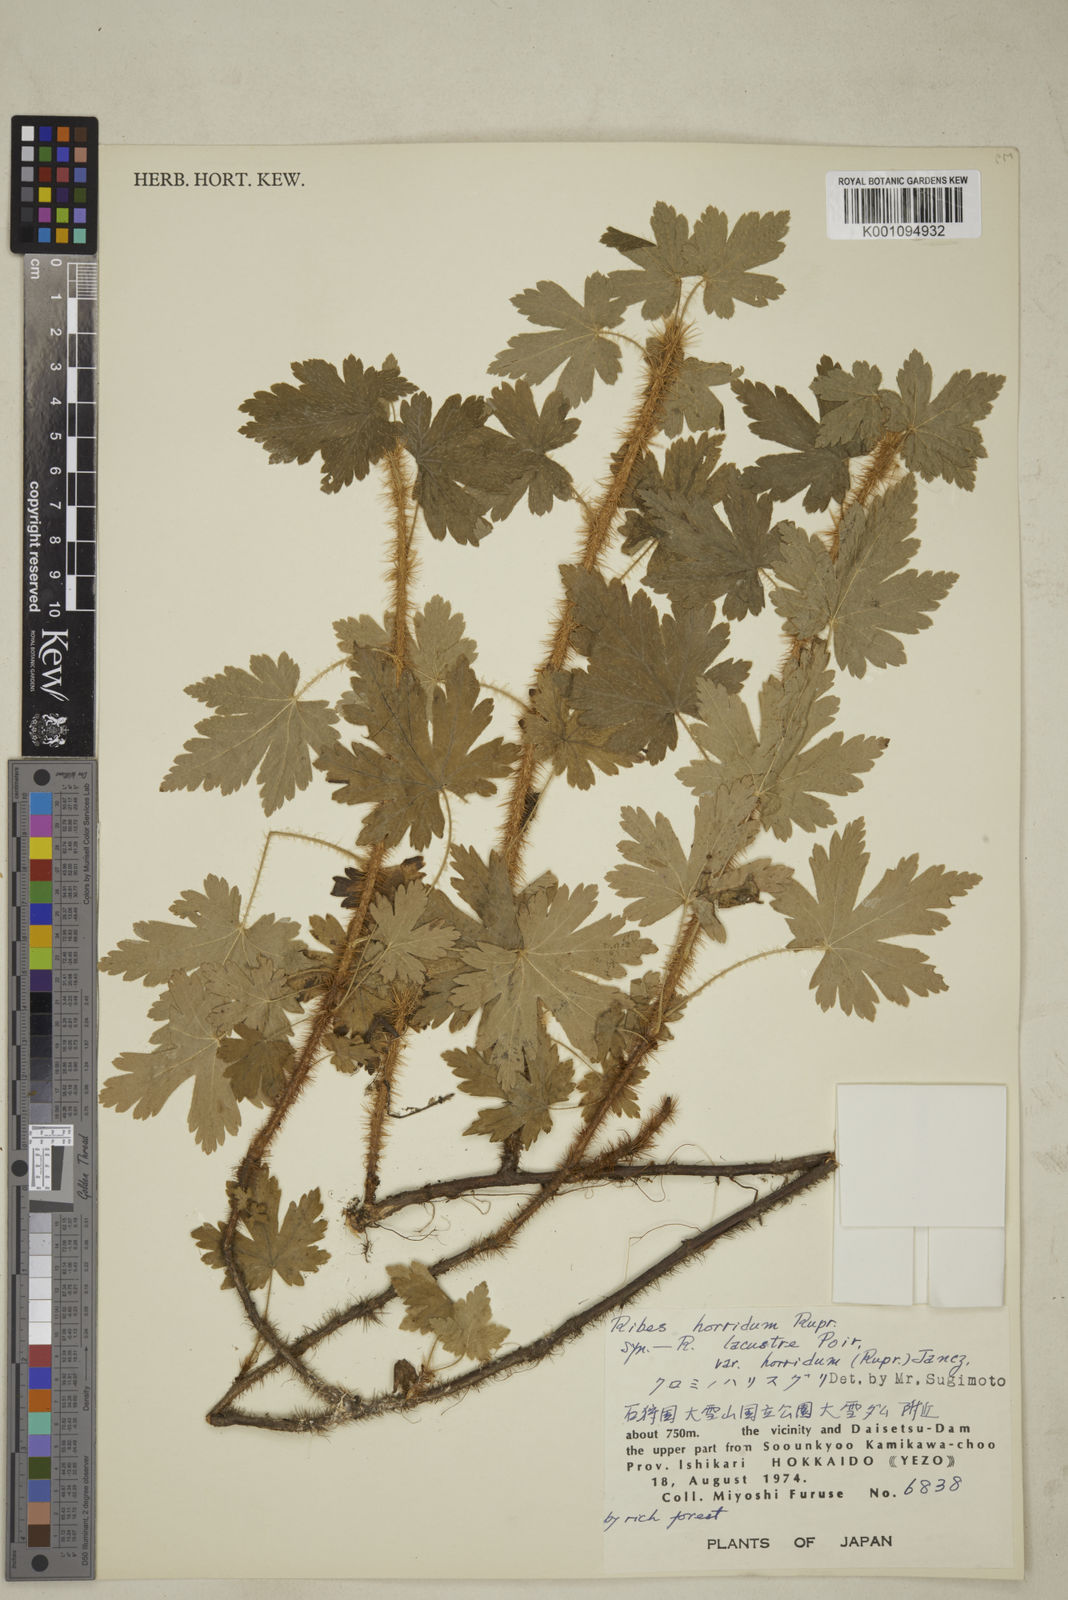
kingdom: Plantae
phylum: Tracheophyta
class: Magnoliopsida
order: Saxifragales
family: Grossulariaceae
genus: Ribes
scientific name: Ribes horridum
